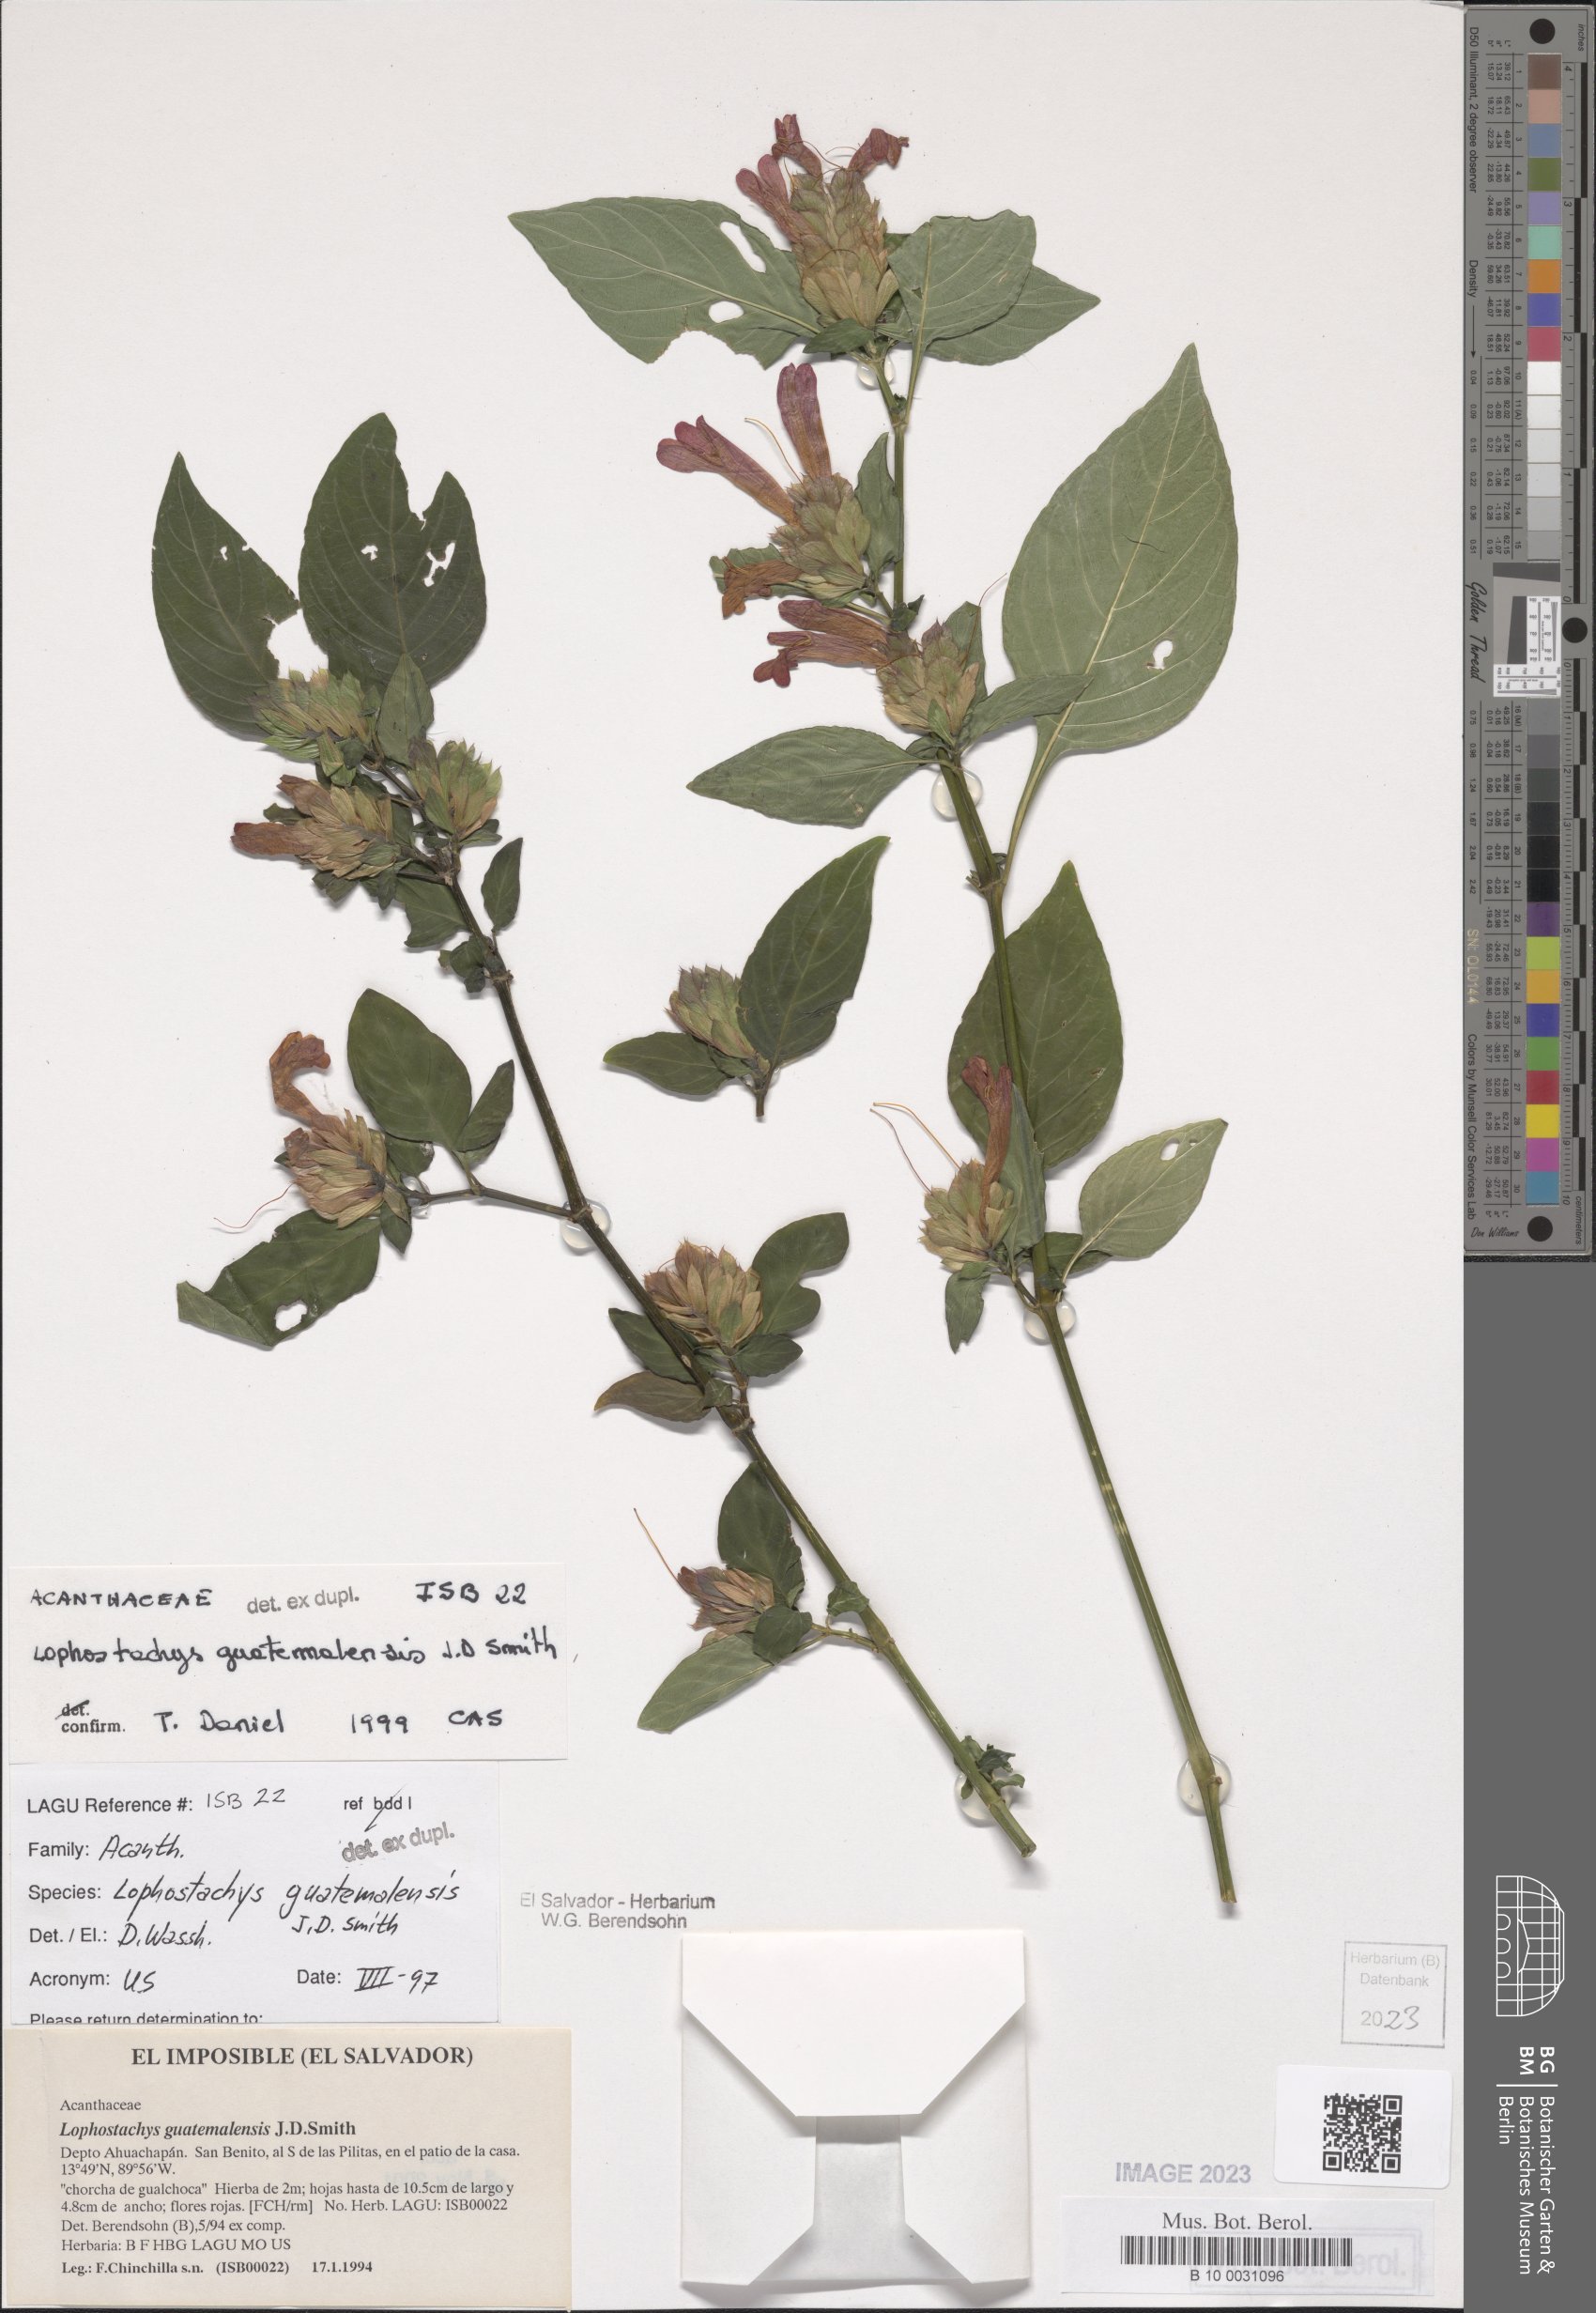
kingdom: Plantae
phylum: Tracheophyta
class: Magnoliopsida
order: Lamiales
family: Acanthaceae
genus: Lepidagathis
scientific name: Lepidagathis guatemalensis
